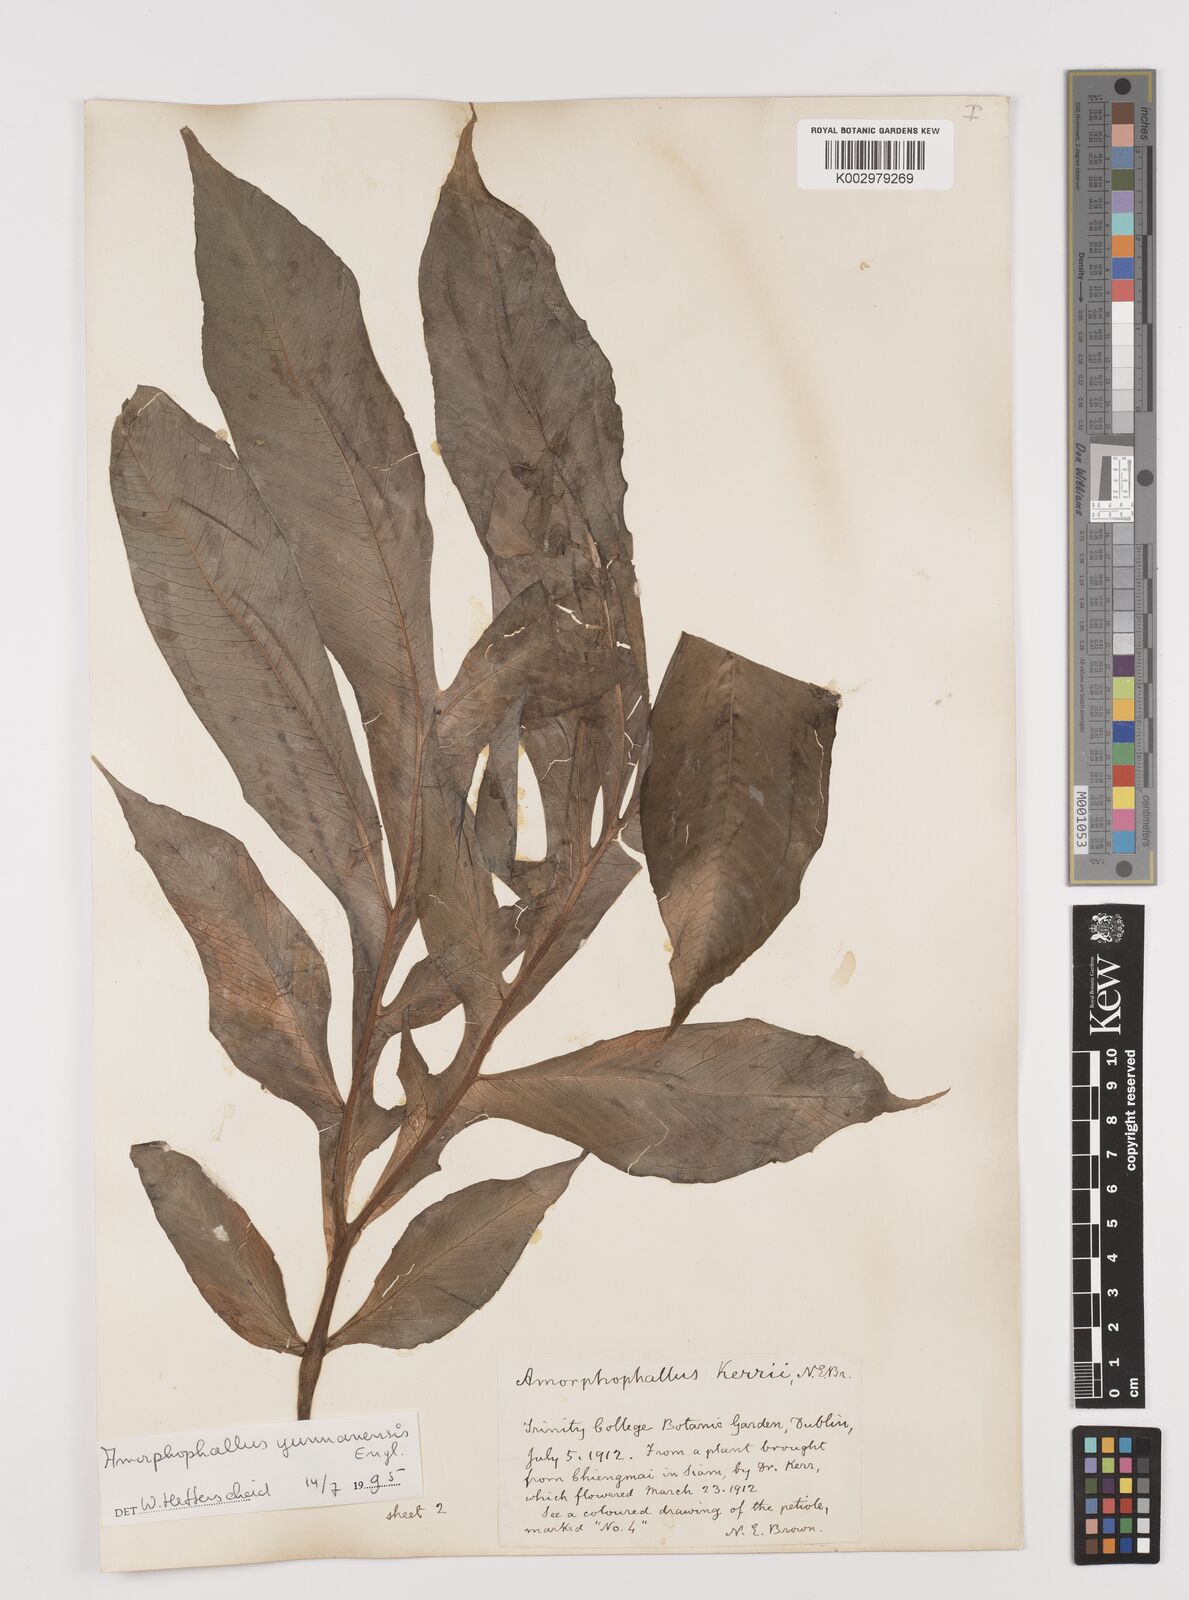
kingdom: Plantae
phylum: Tracheophyta
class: Liliopsida
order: Alismatales
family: Araceae
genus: Amorphophallus
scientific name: Amorphophallus yunnanensis
